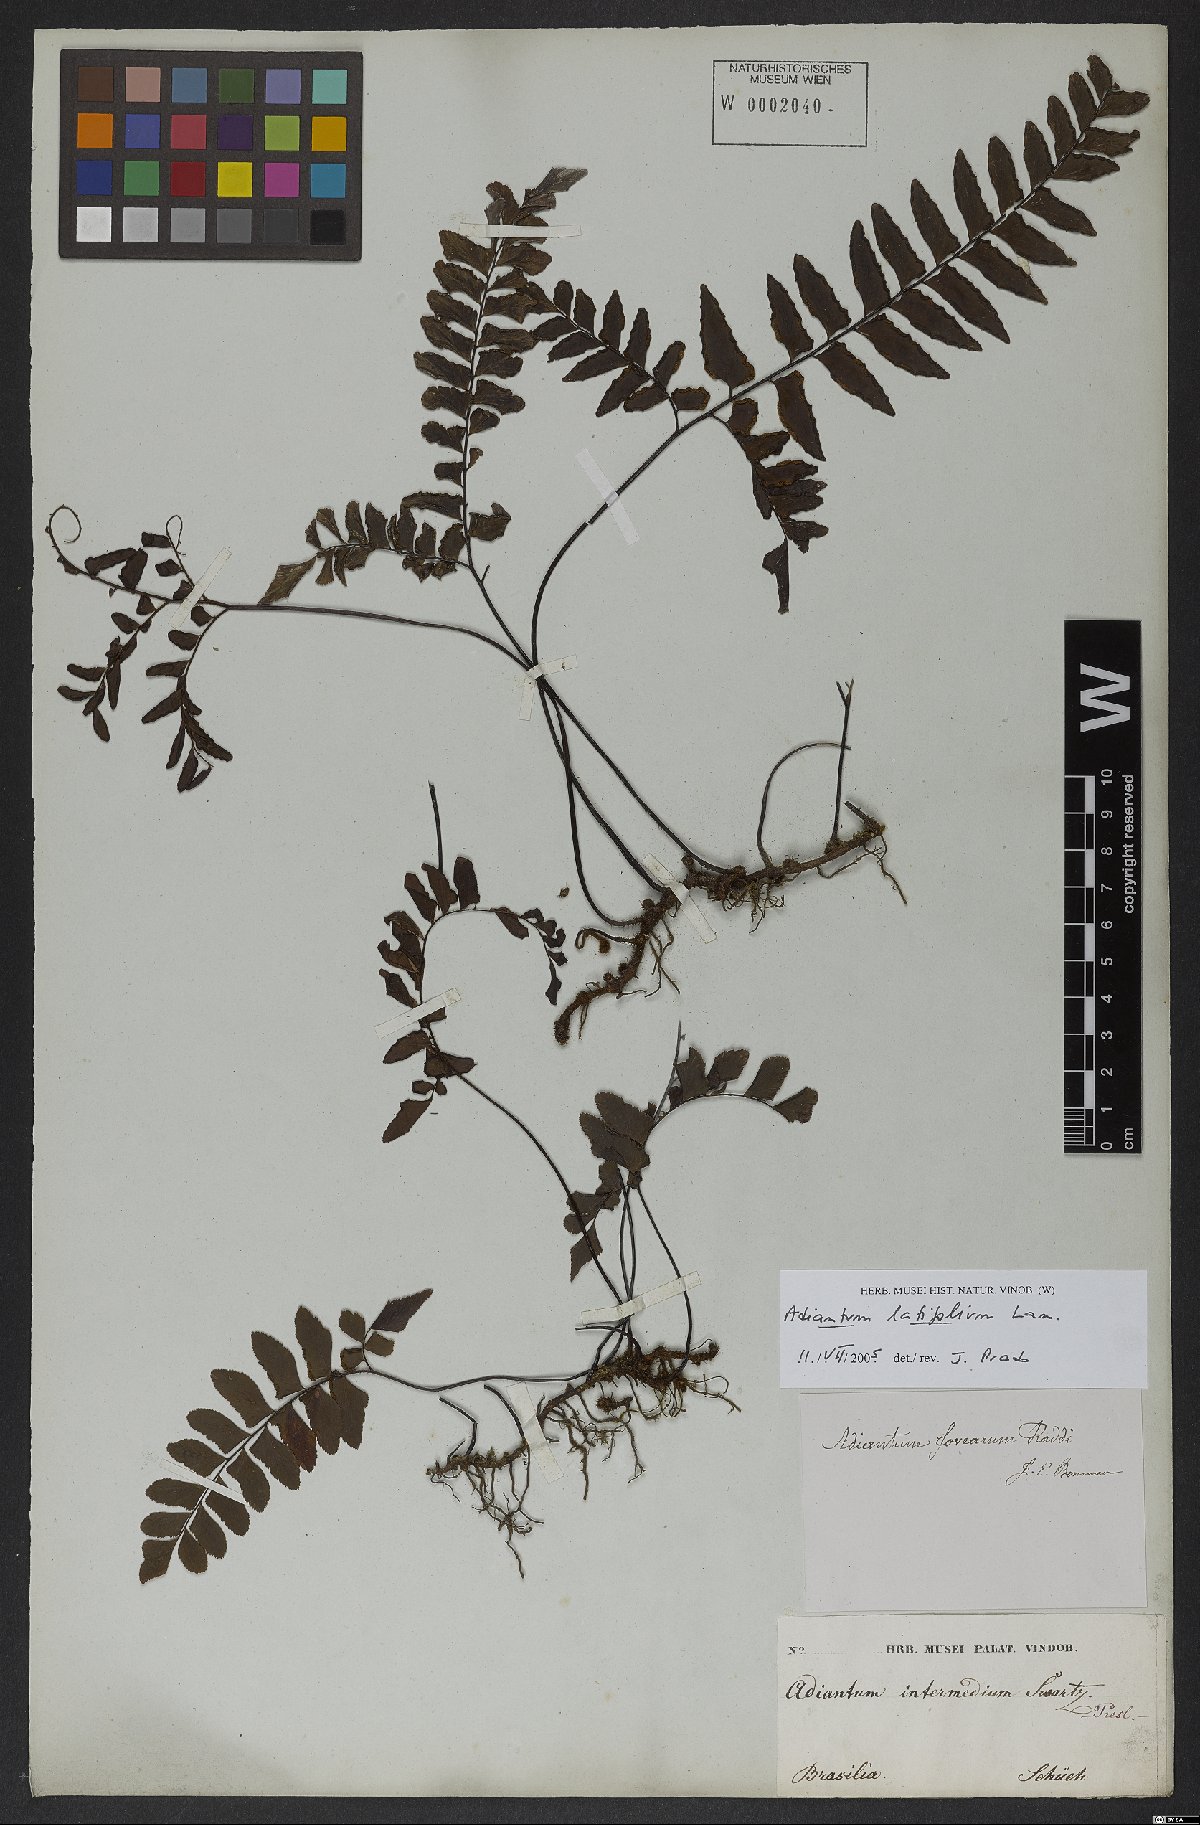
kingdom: Plantae
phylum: Tracheophyta
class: Polypodiopsida
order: Polypodiales
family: Pteridaceae
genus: Adiantum
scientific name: Adiantum latifolium
